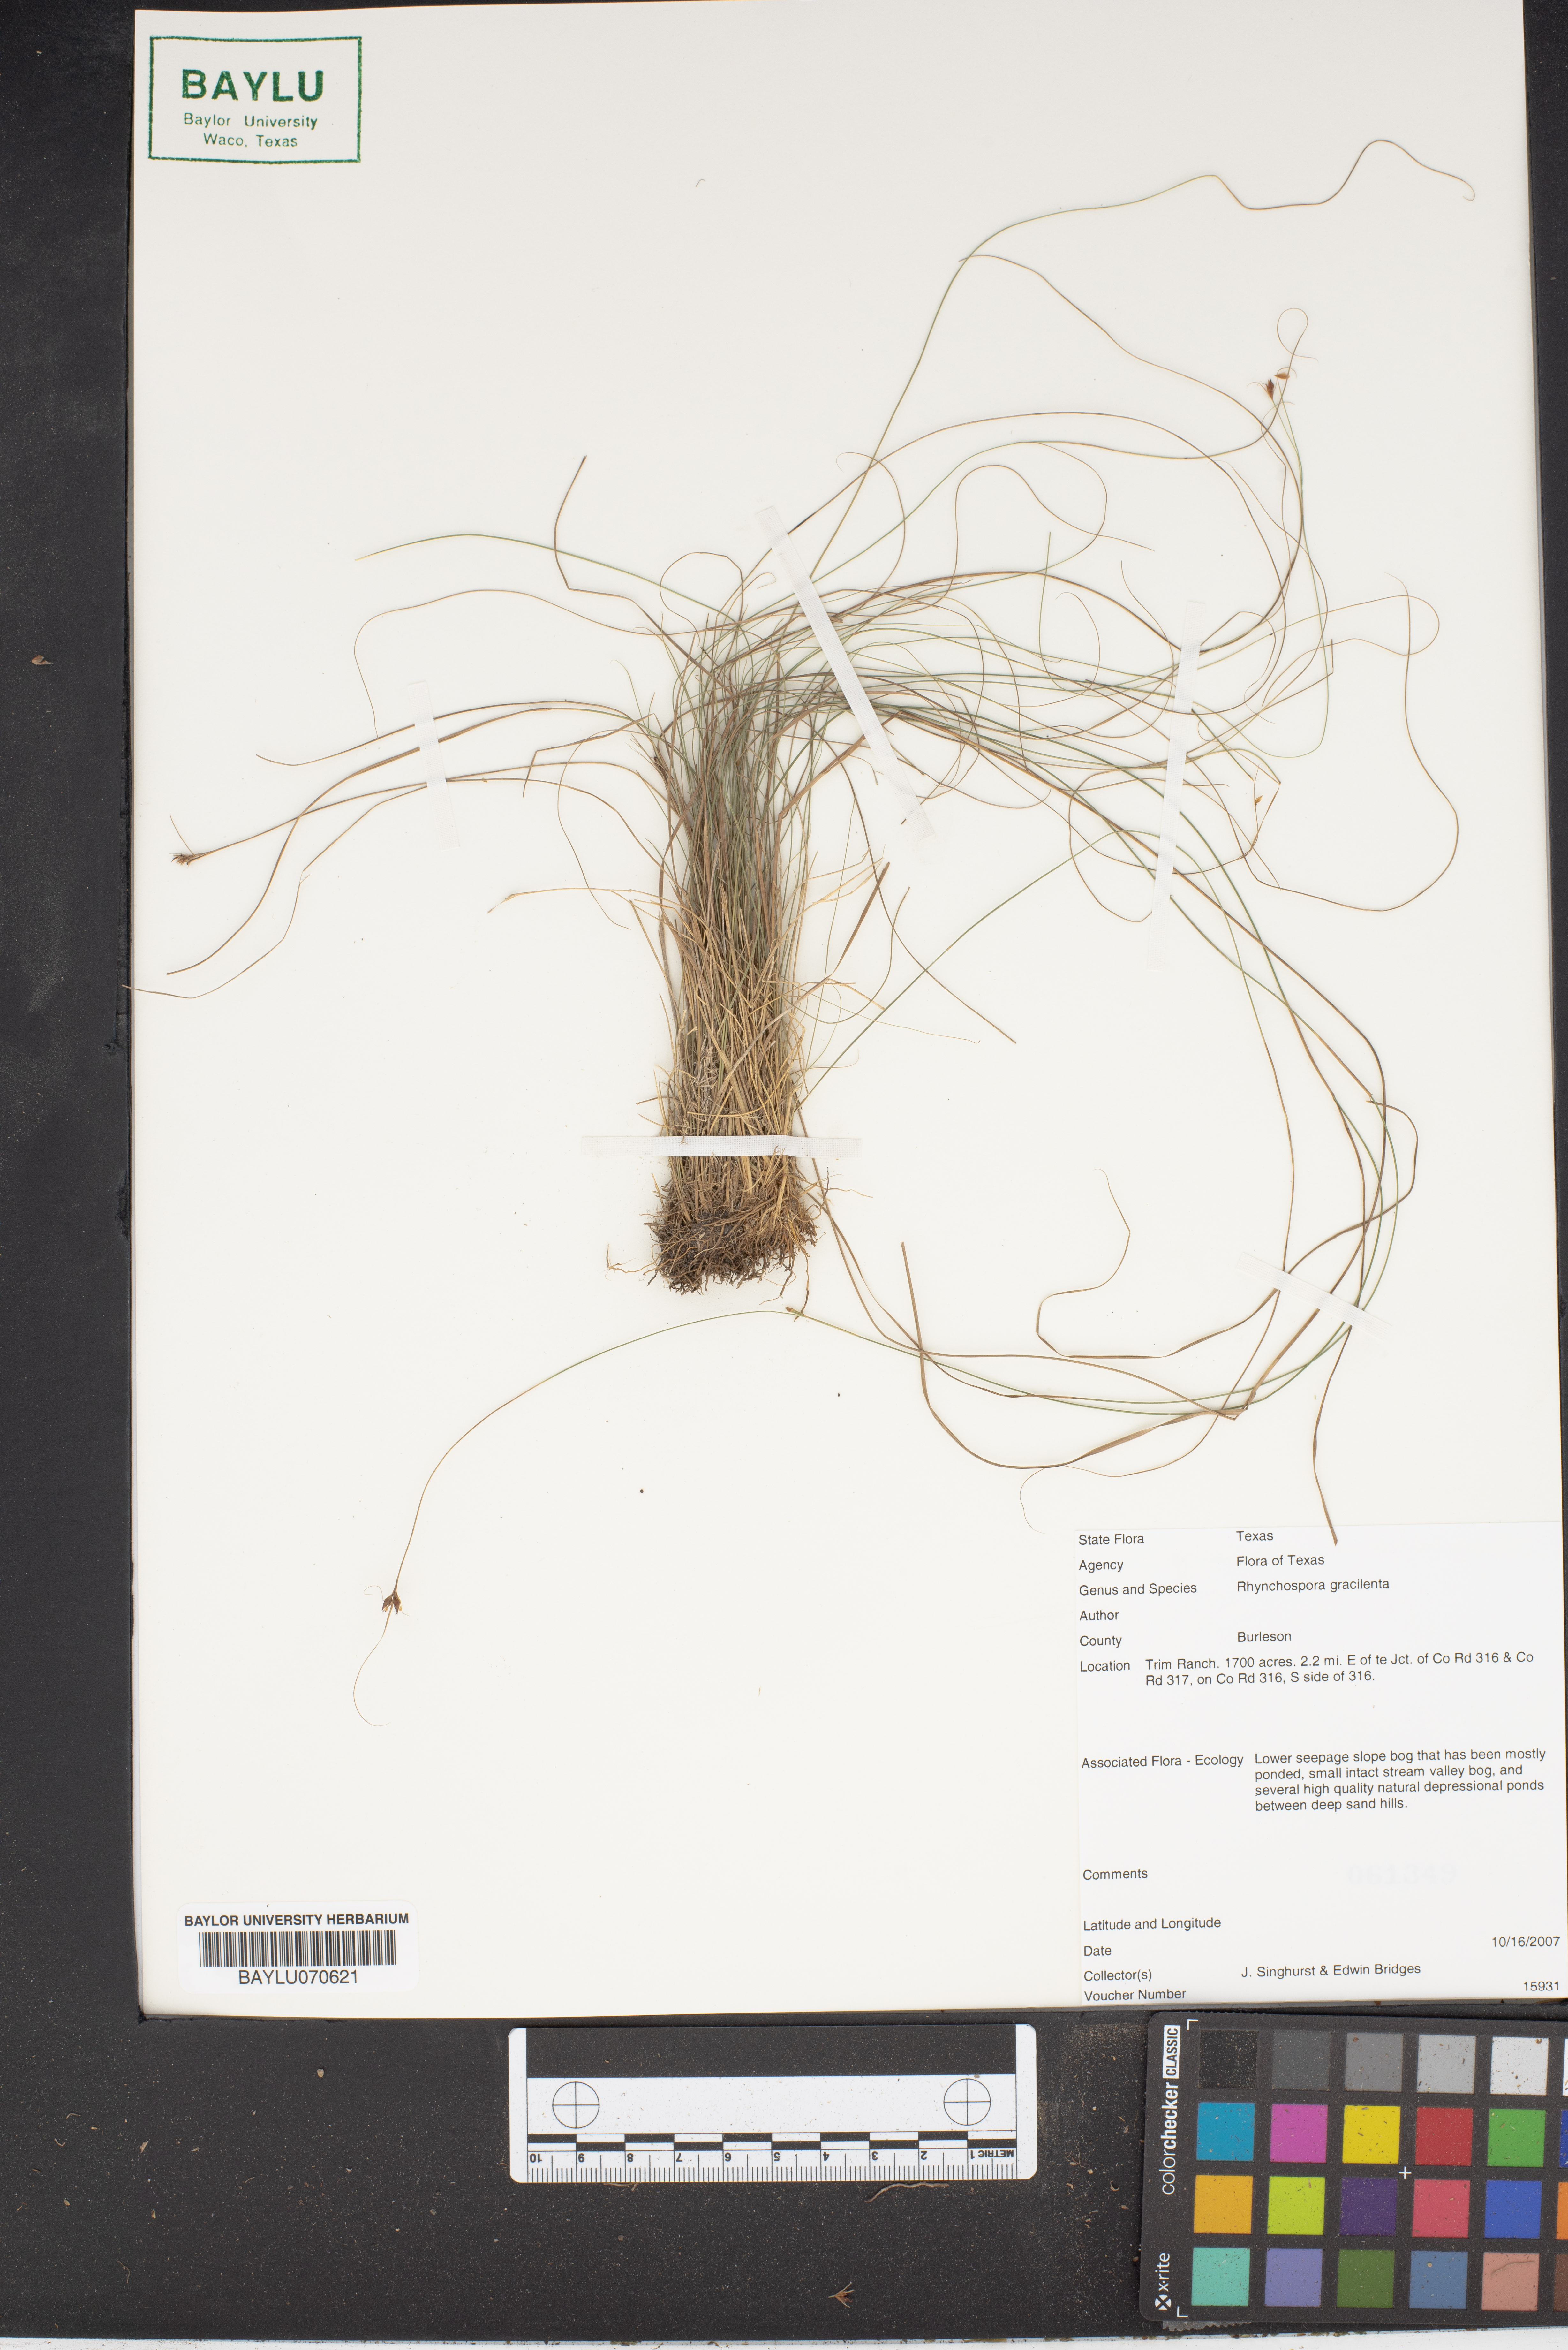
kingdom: Plantae
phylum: Tracheophyta
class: Liliopsida
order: Poales
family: Cyperaceae
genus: Rhynchospora
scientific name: Rhynchospora gracilenta
